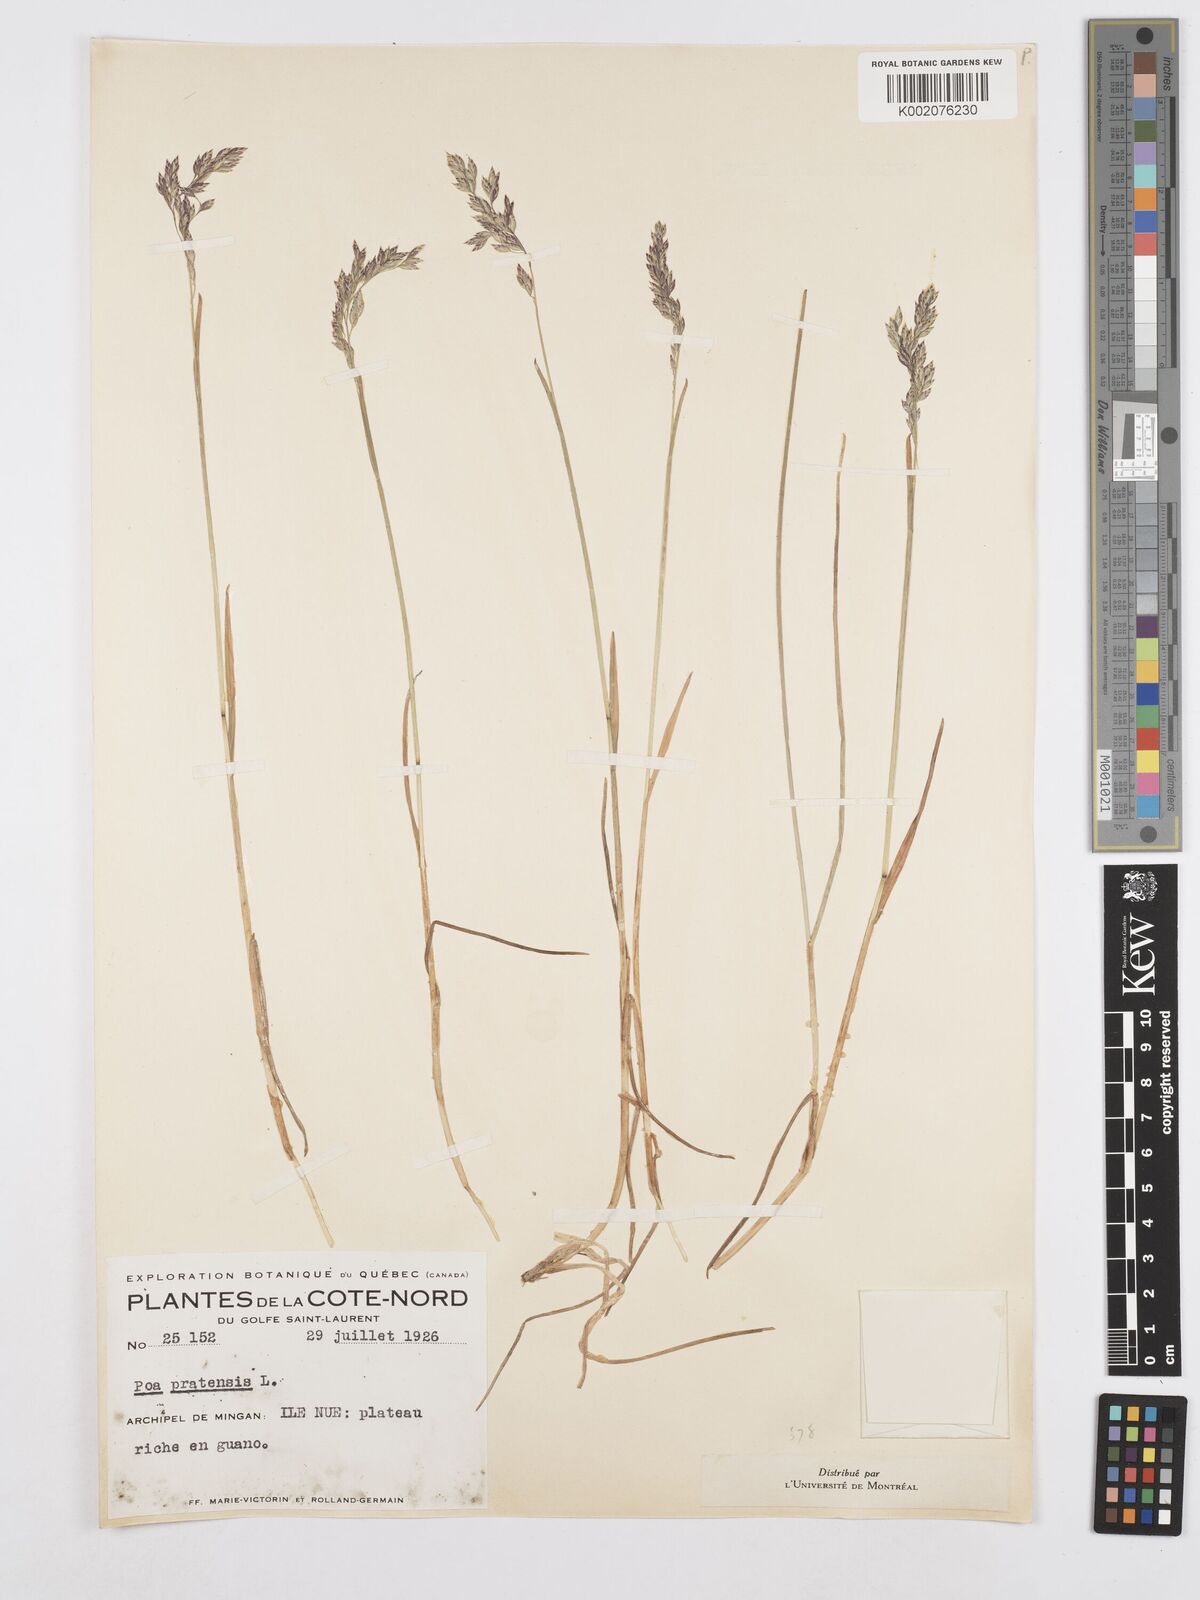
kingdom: Plantae
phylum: Tracheophyta
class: Liliopsida
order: Poales
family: Poaceae
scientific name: Poaceae
